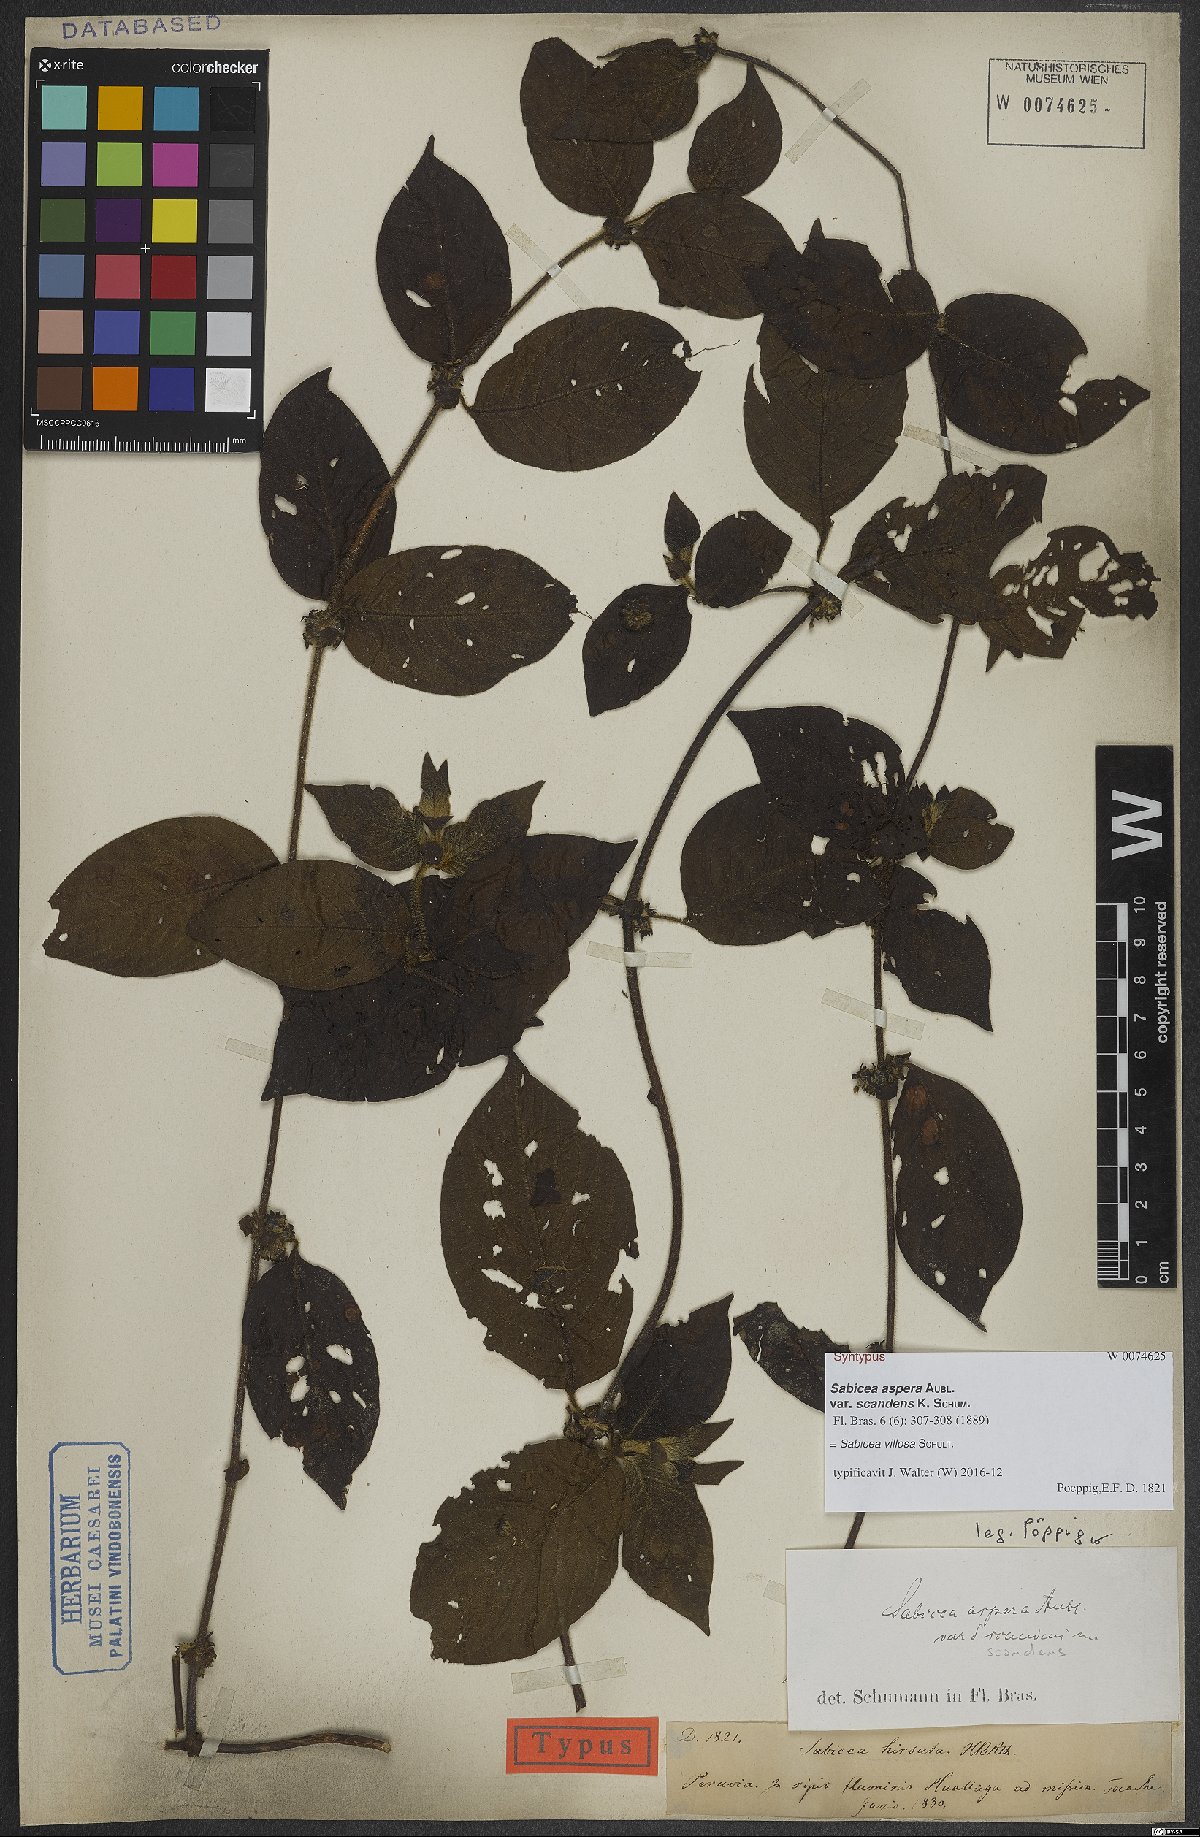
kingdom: Plantae
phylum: Tracheophyta
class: Magnoliopsida
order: Gentianales
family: Rubiaceae
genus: Sabicea
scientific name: Sabicea villosa
